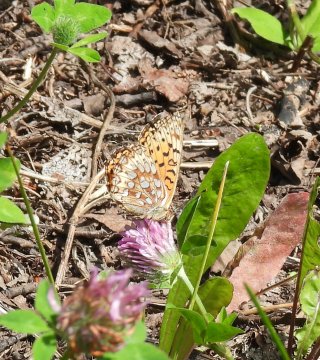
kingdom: Animalia
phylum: Arthropoda
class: Insecta
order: Lepidoptera
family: Nymphalidae
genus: Speyeria
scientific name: Speyeria atlantis
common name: Atlantis Fritillary
